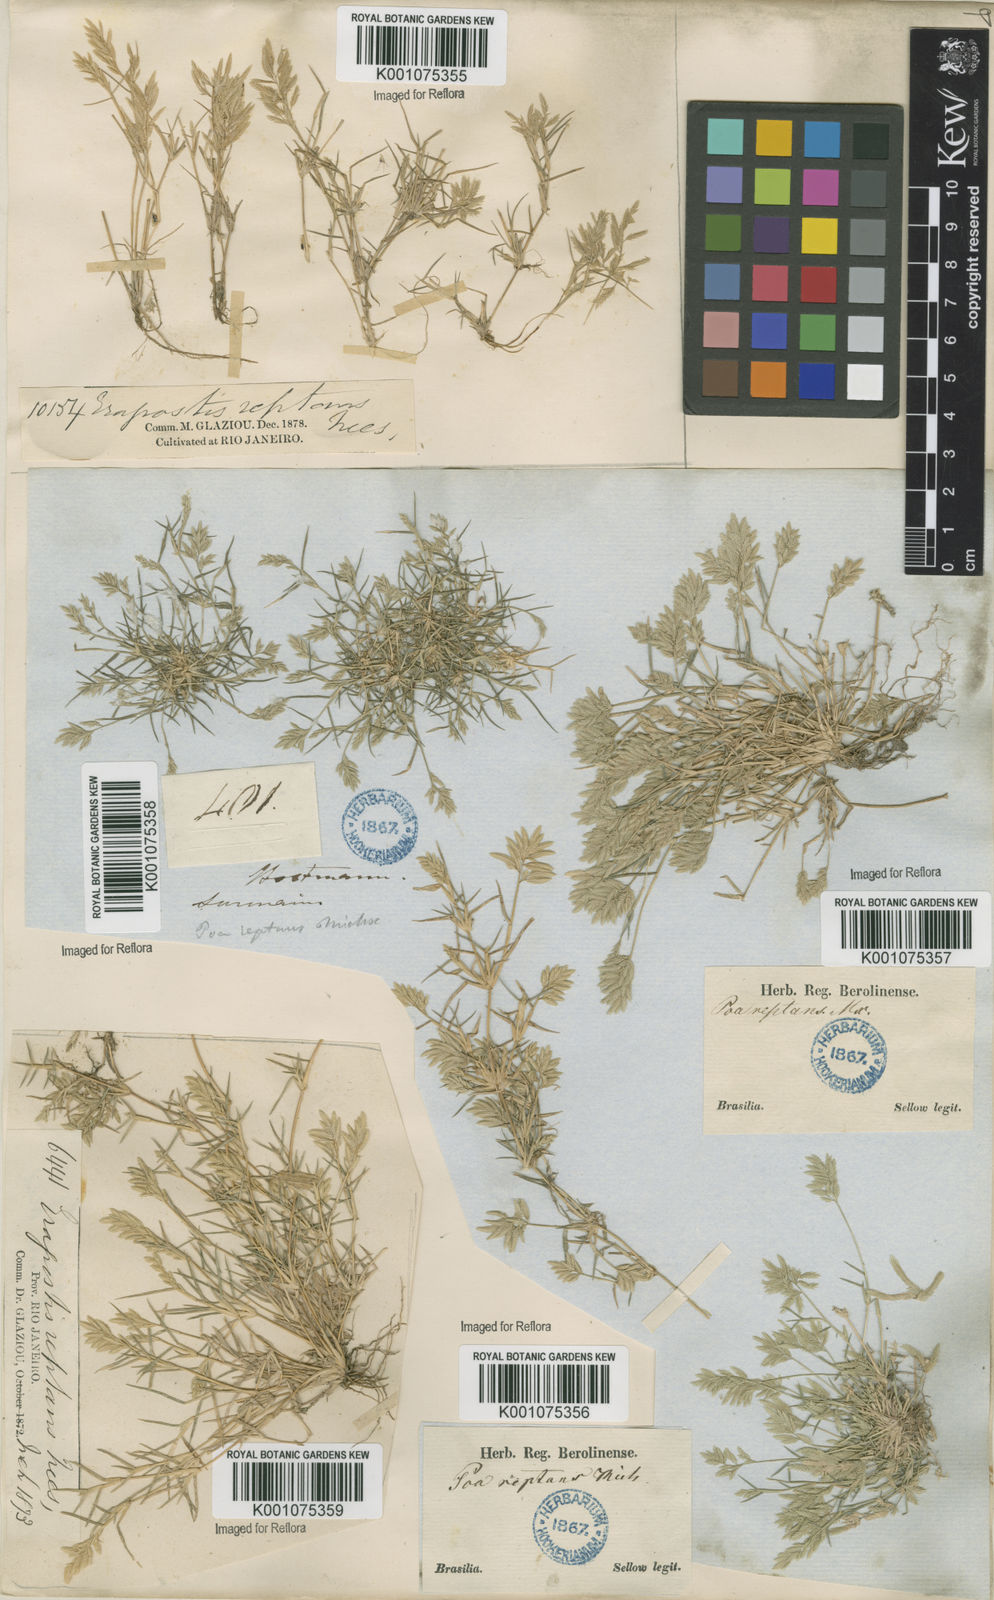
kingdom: Plantae
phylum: Tracheophyta
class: Liliopsida
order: Poales
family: Poaceae
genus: Eragrostis
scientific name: Eragrostis
